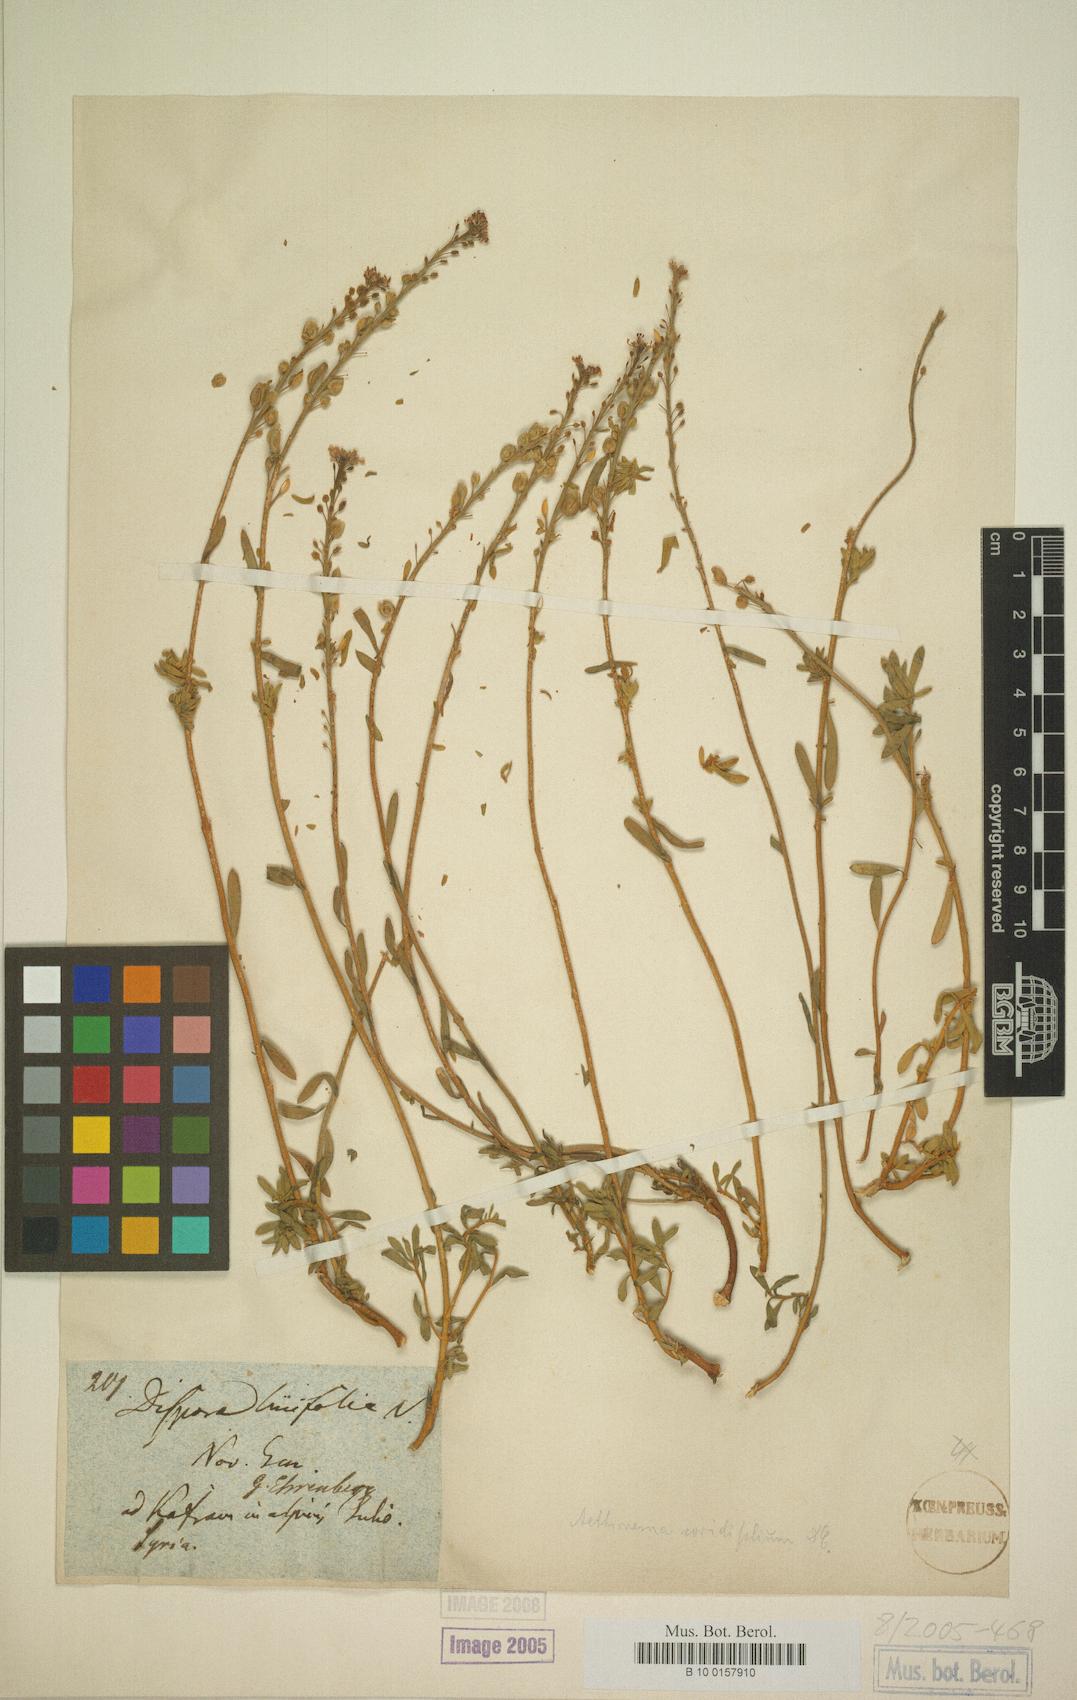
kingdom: Plantae
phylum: Tracheophyta
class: Magnoliopsida
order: Brassicales
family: Brassicaceae
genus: Aethionema
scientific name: Aethionema coridifolium
